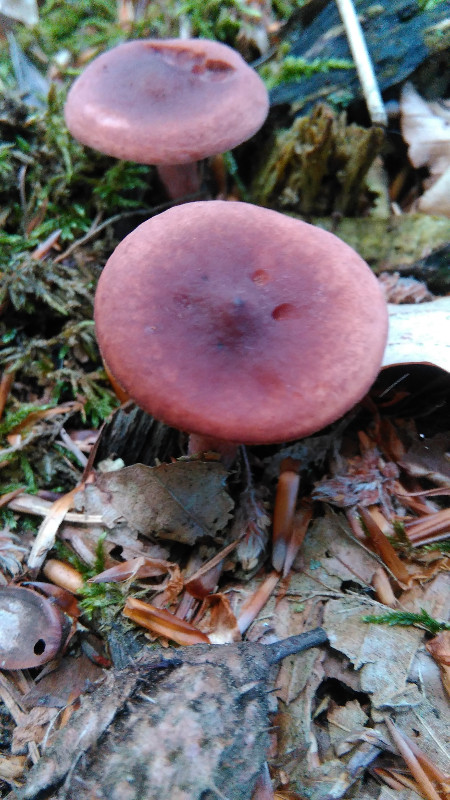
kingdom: Fungi
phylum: Basidiomycota
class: Agaricomycetes
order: Russulales
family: Russulaceae
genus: Lactarius
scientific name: Lactarius camphoratus
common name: kamfer-mælkehat
